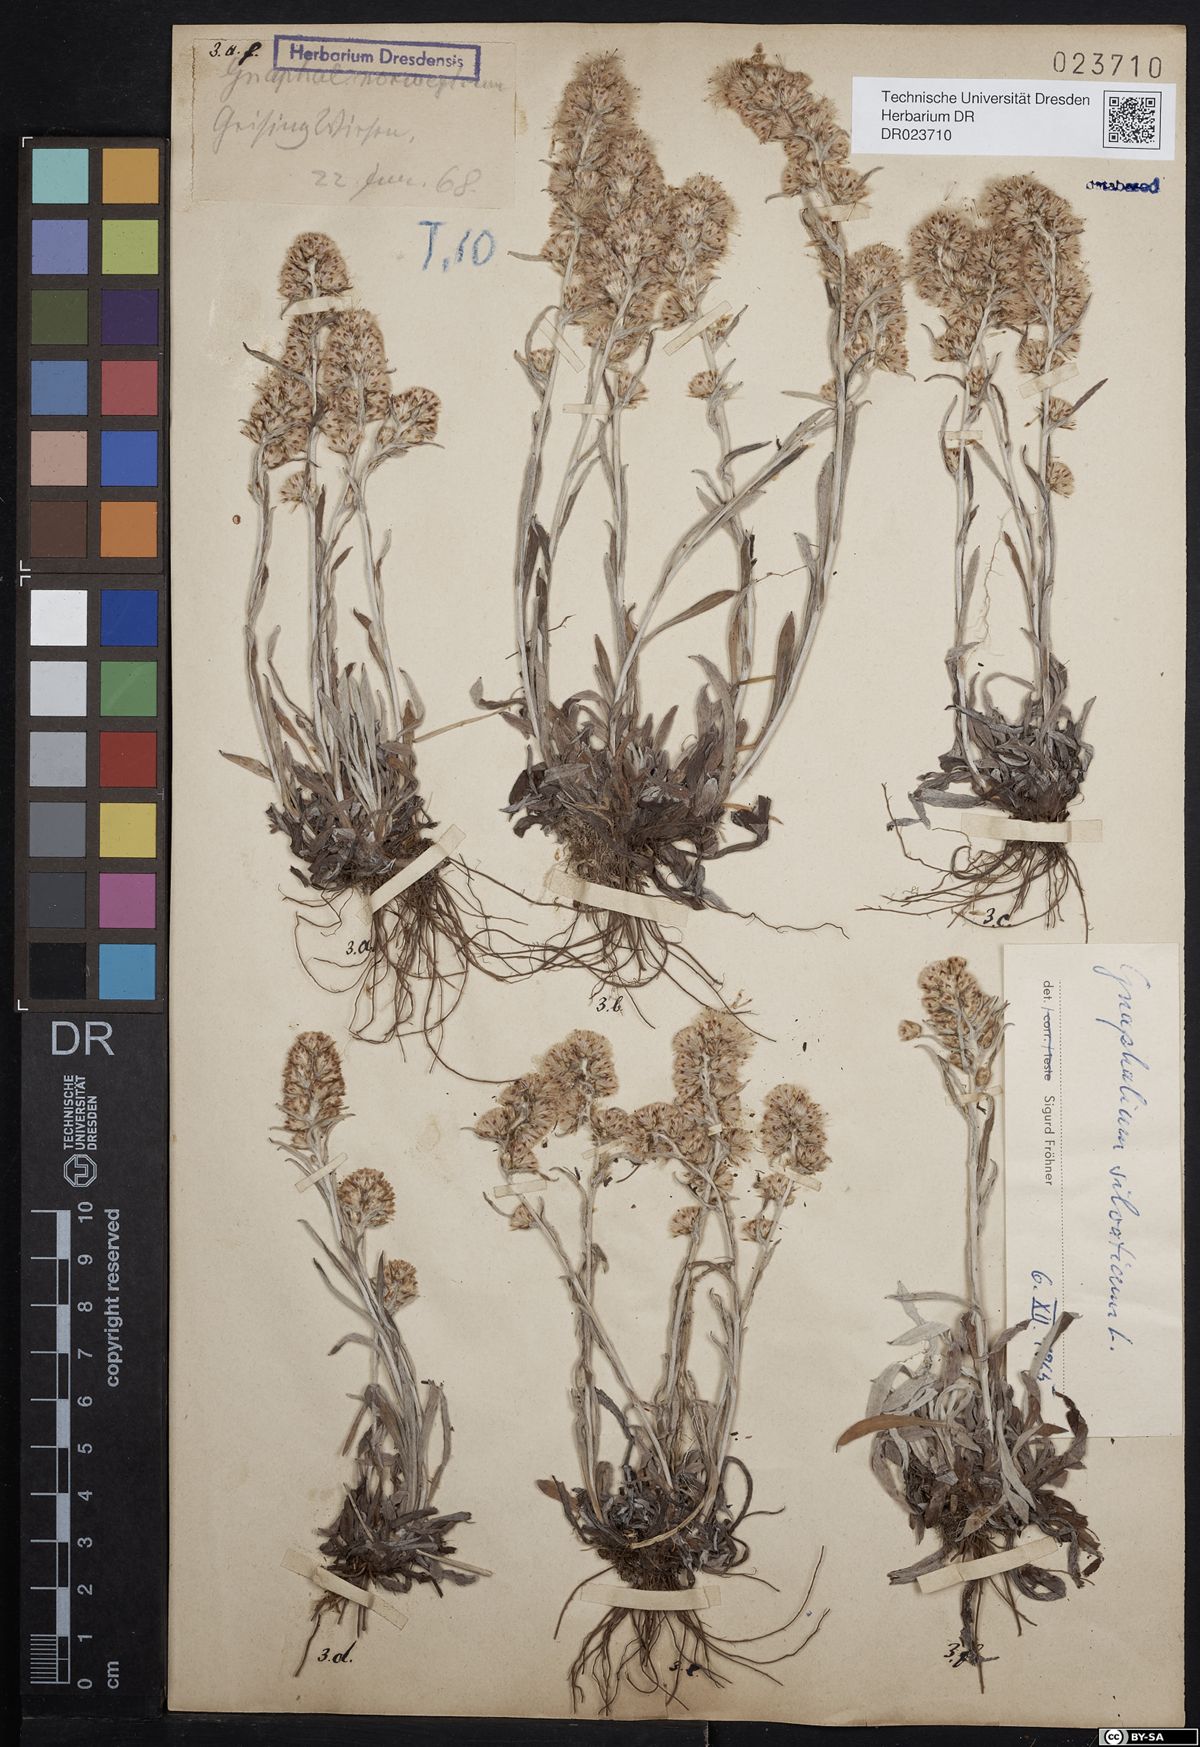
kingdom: Plantae
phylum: Tracheophyta
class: Magnoliopsida
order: Asterales
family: Asteraceae
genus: Omalotheca
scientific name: Omalotheca sylvatica
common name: Heath cudweed
